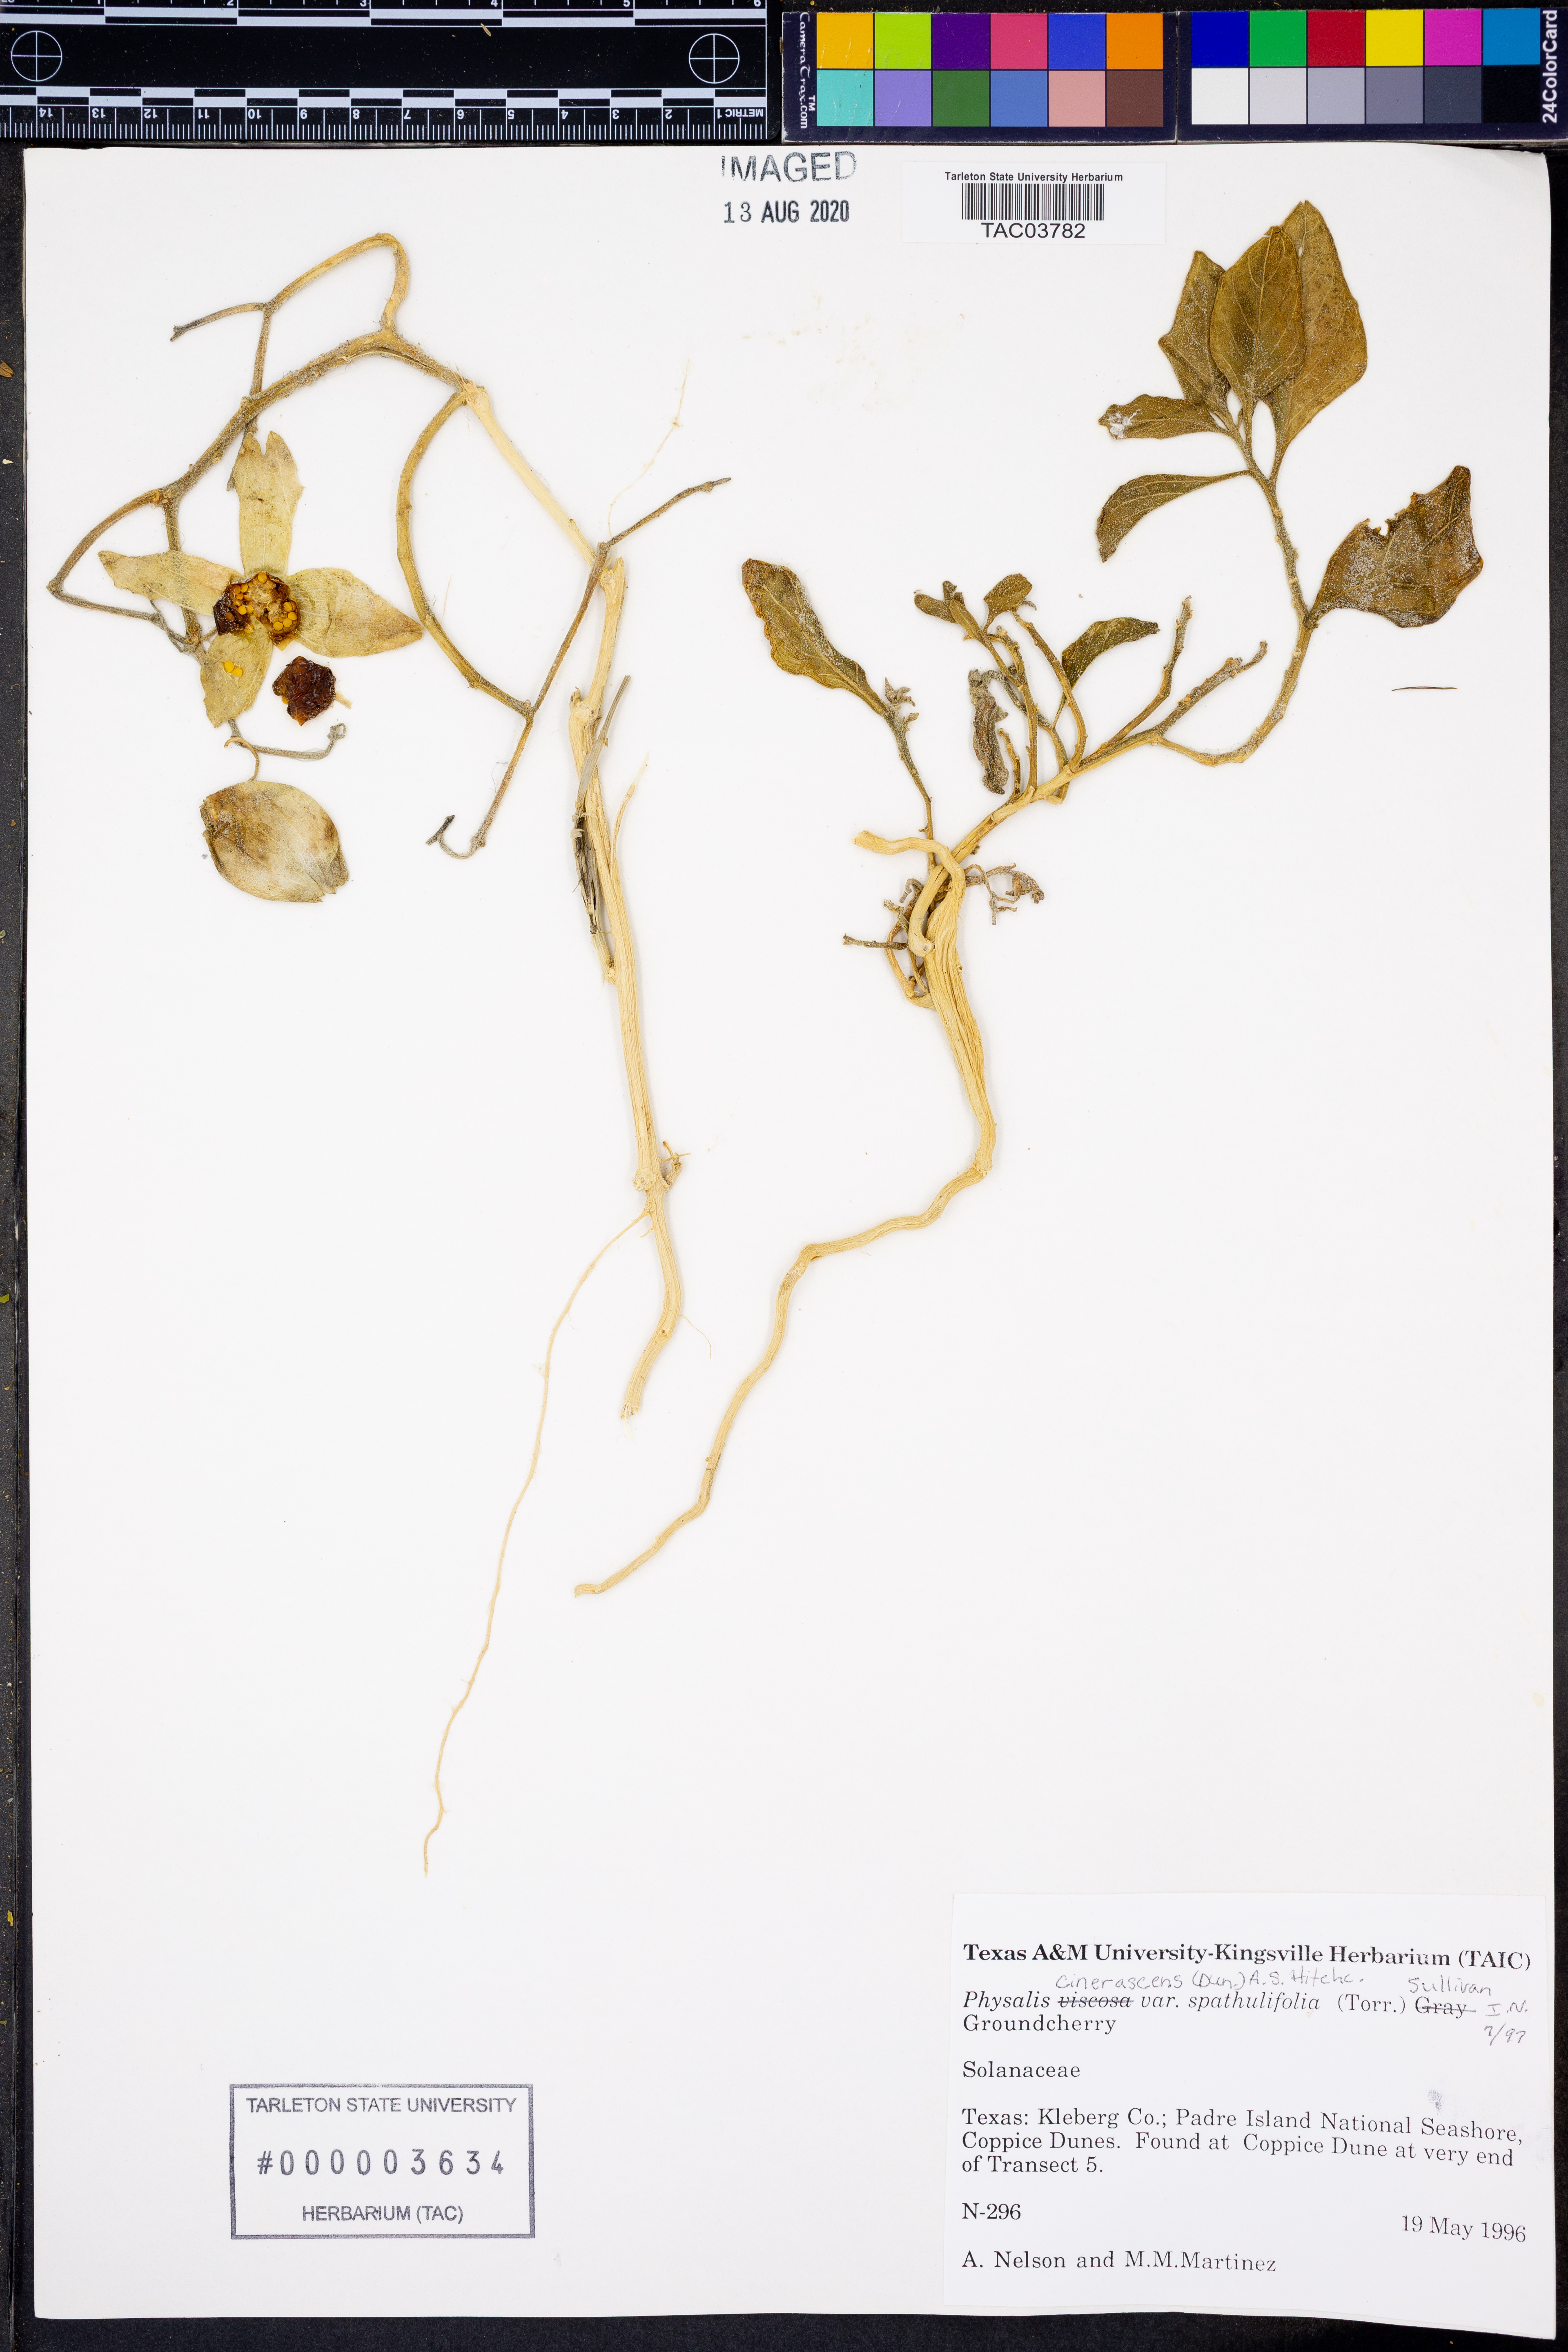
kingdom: Plantae
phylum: Tracheophyta
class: Magnoliopsida
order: Solanales
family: Solanaceae
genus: Physalis
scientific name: Physalis cinerascens
